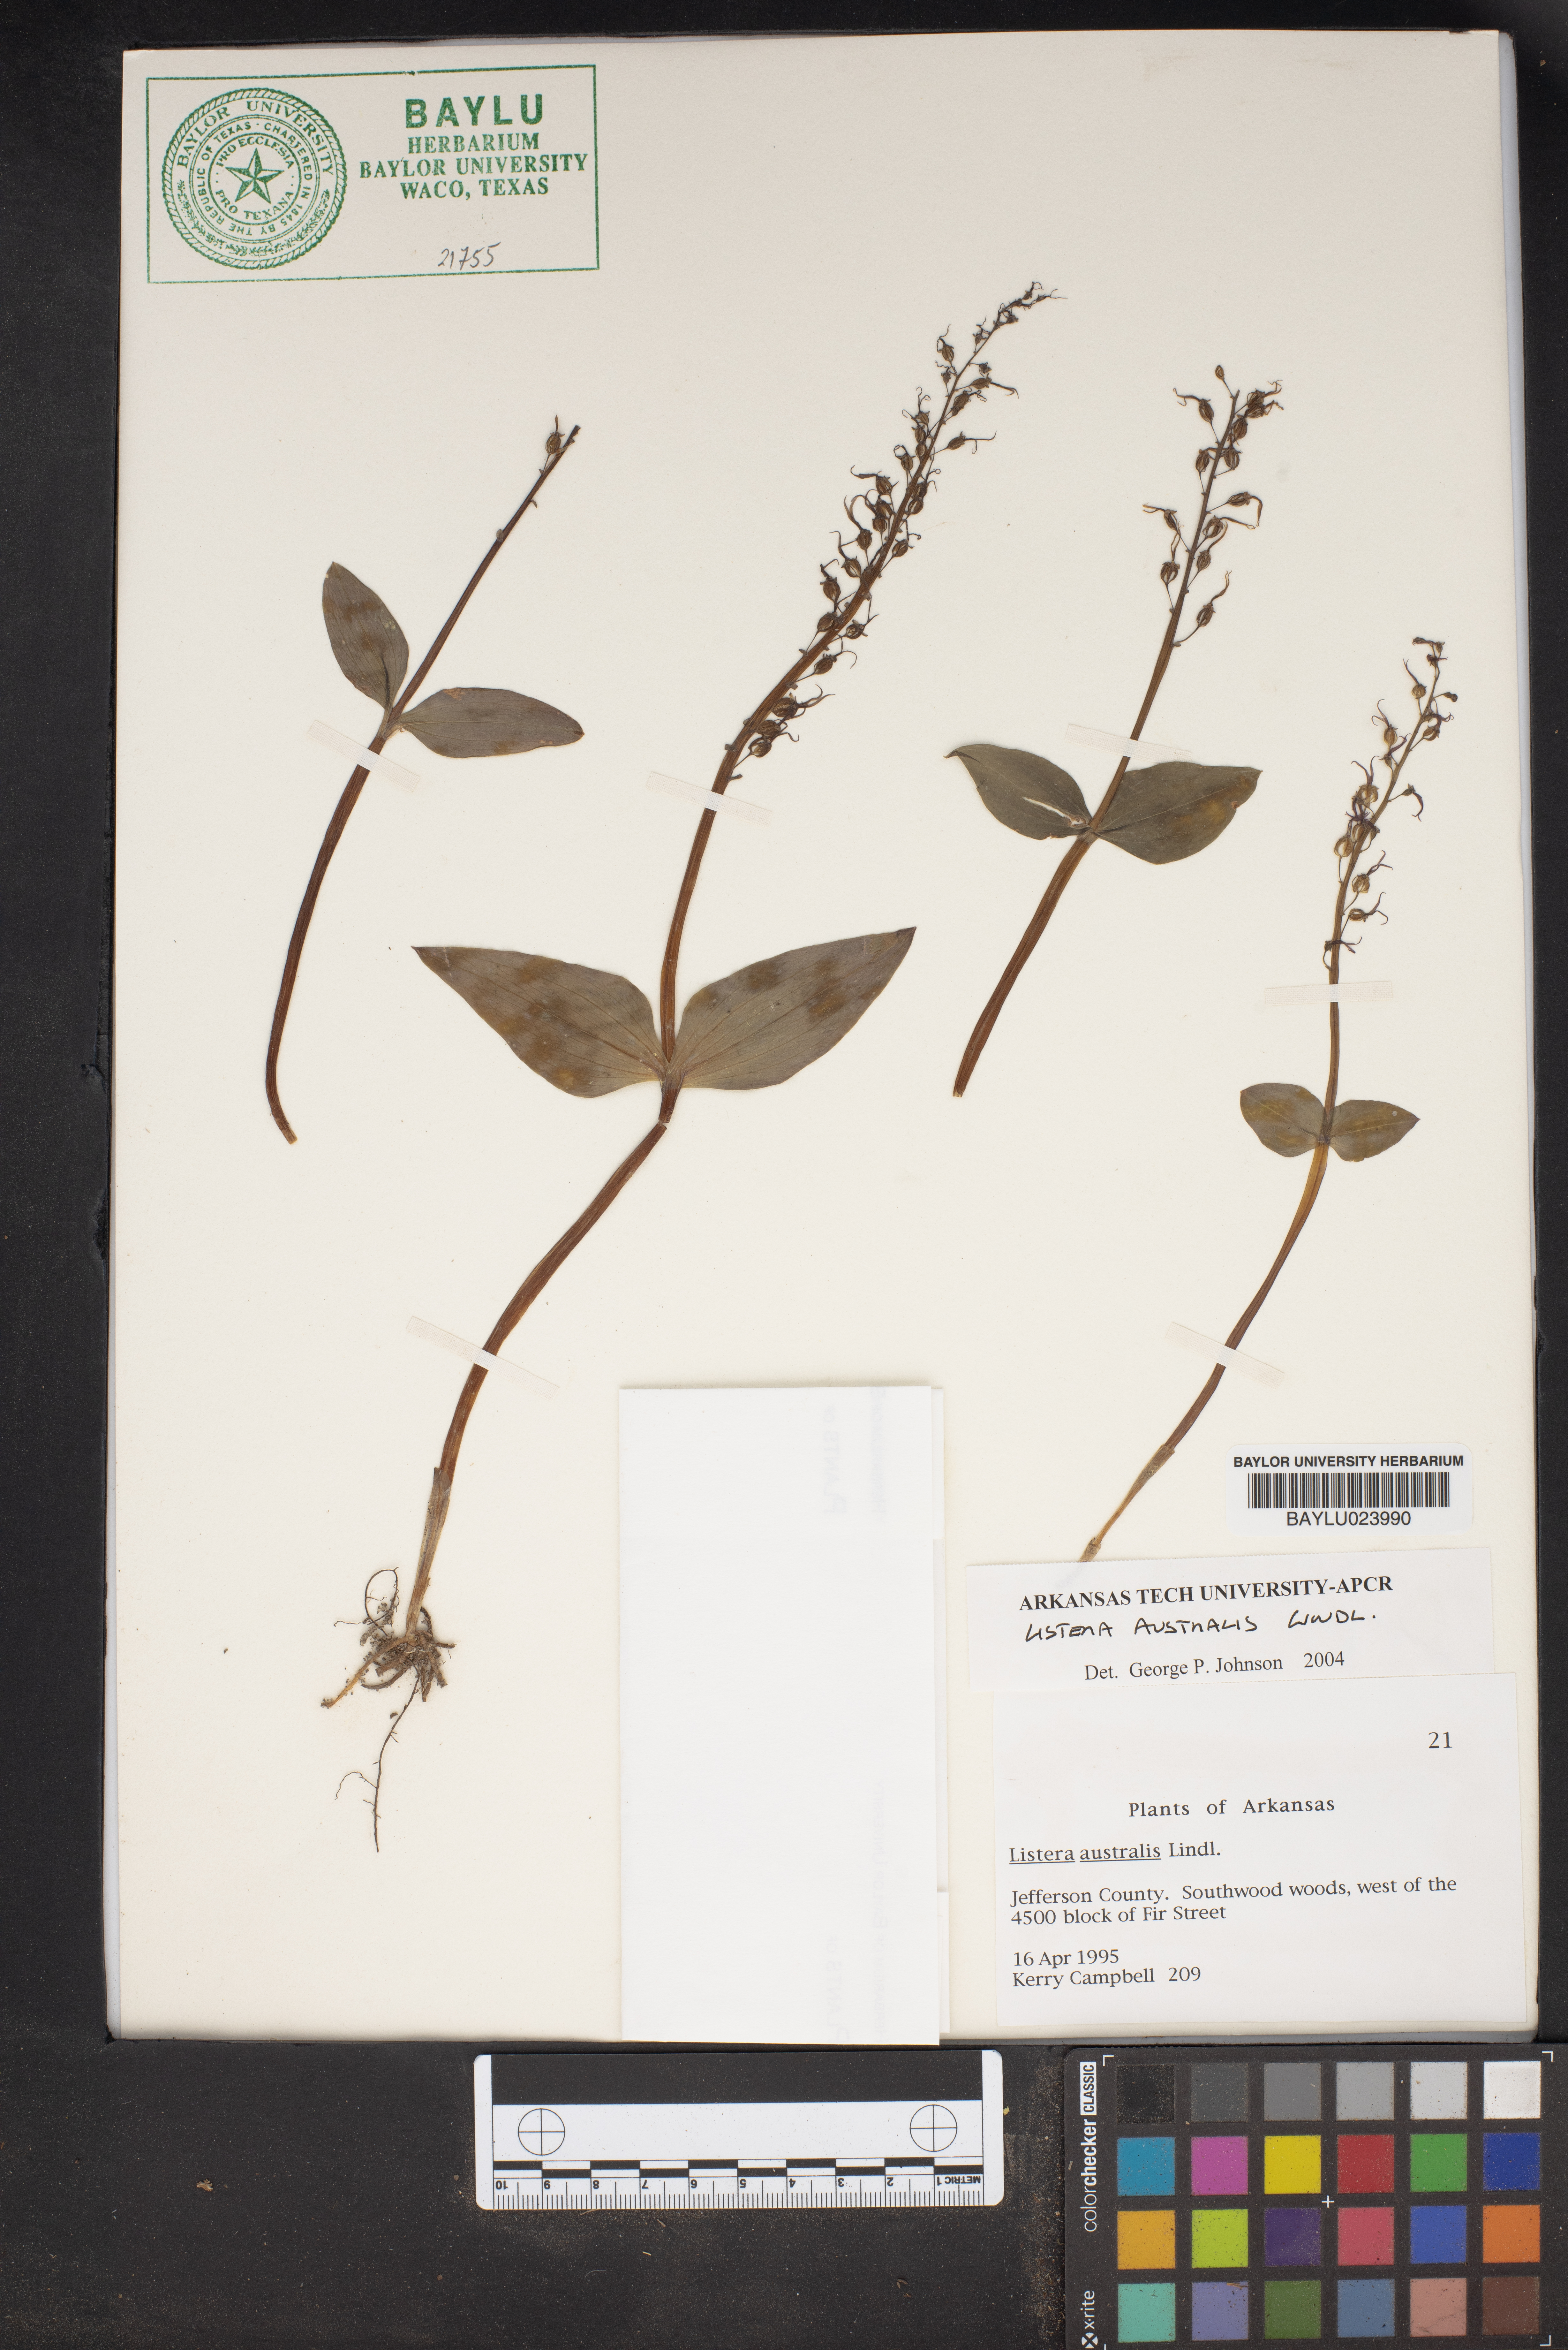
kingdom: Plantae
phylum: Tracheophyta
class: Liliopsida
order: Asparagales
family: Orchidaceae
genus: Neottia
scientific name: Neottia bifolia
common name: Southern twayblade
